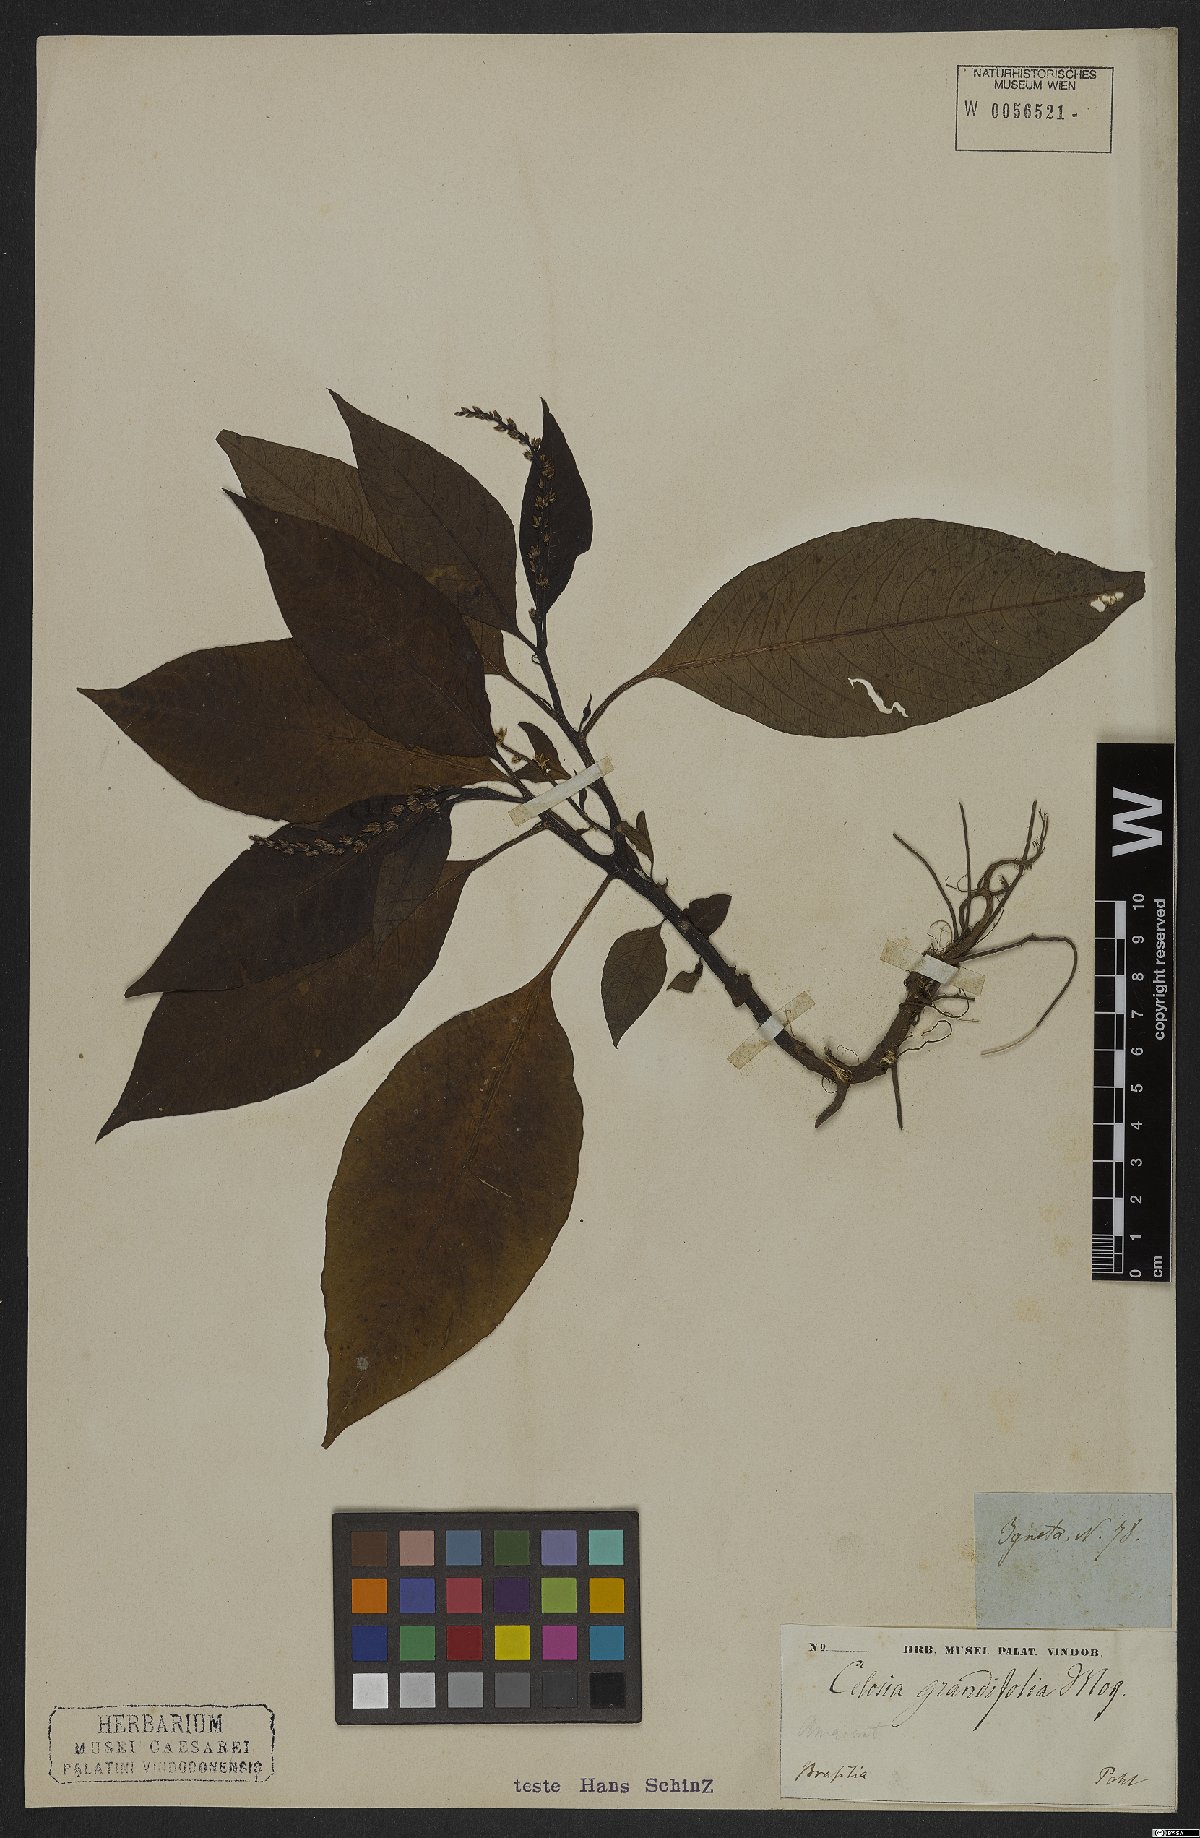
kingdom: Plantae
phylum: Tracheophyta
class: Magnoliopsida
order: Caryophyllales
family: Amaranthaceae
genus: Celosia
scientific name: Celosia grandifolia
